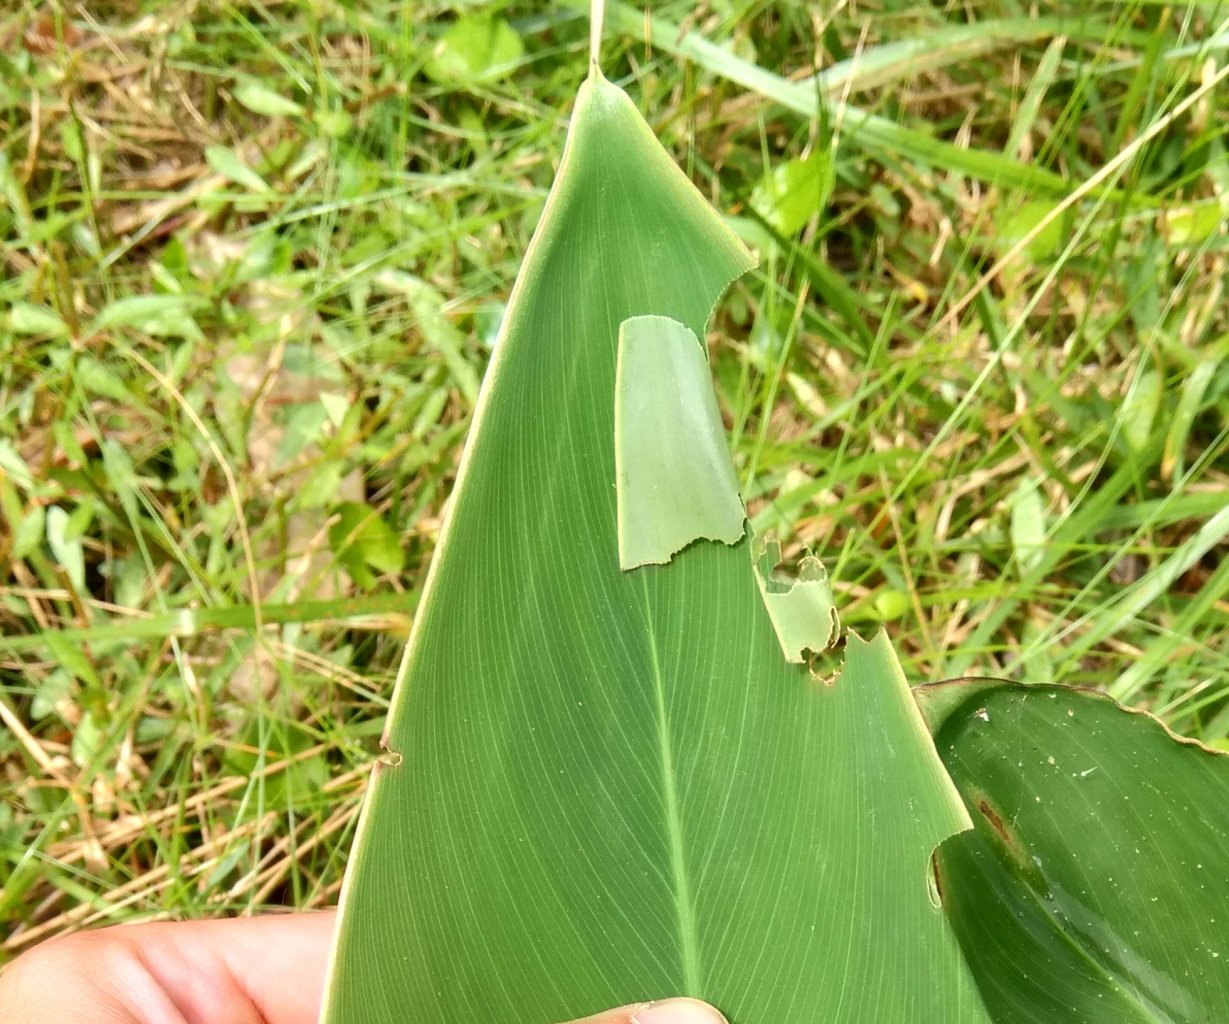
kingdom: Animalia
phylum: Arthropoda
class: Insecta
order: Lepidoptera
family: Hesperiidae
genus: Calpodes
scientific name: Calpodes ethlius
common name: Brazilian Skipper
